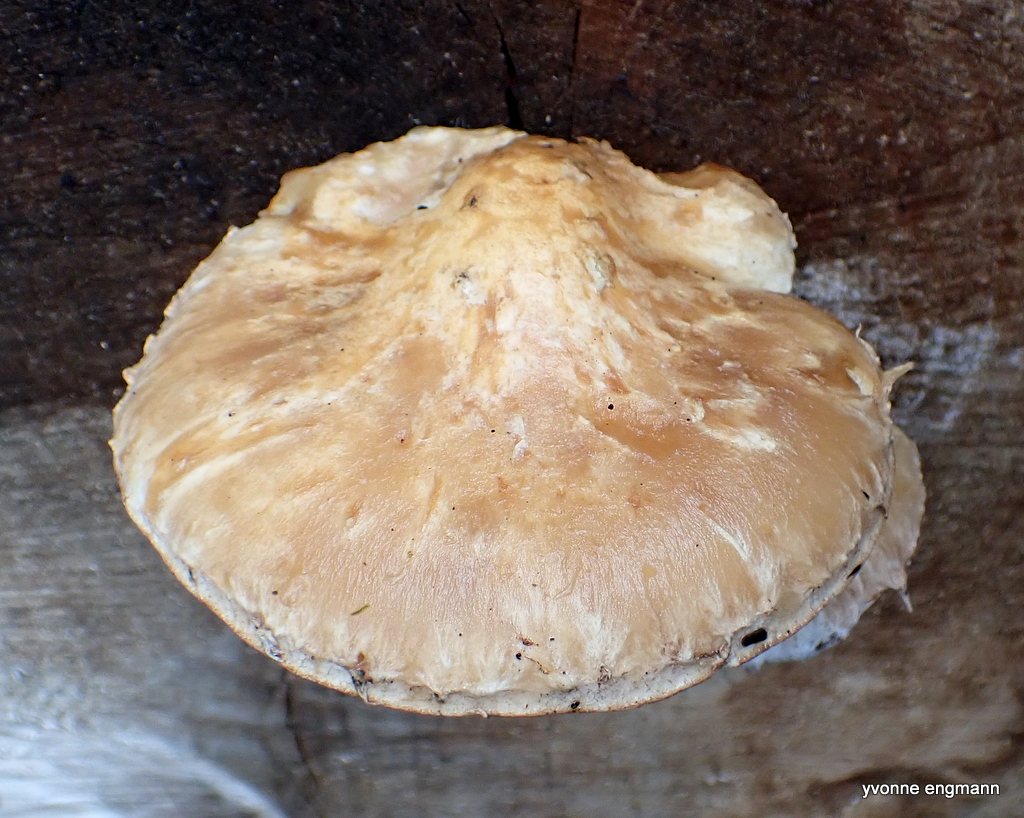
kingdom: Fungi
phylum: Basidiomycota
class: Agaricomycetes
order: Agaricales
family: Strophariaceae
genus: Pholiota
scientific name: Pholiota populnea
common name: poppel-kæmpeskælhat
